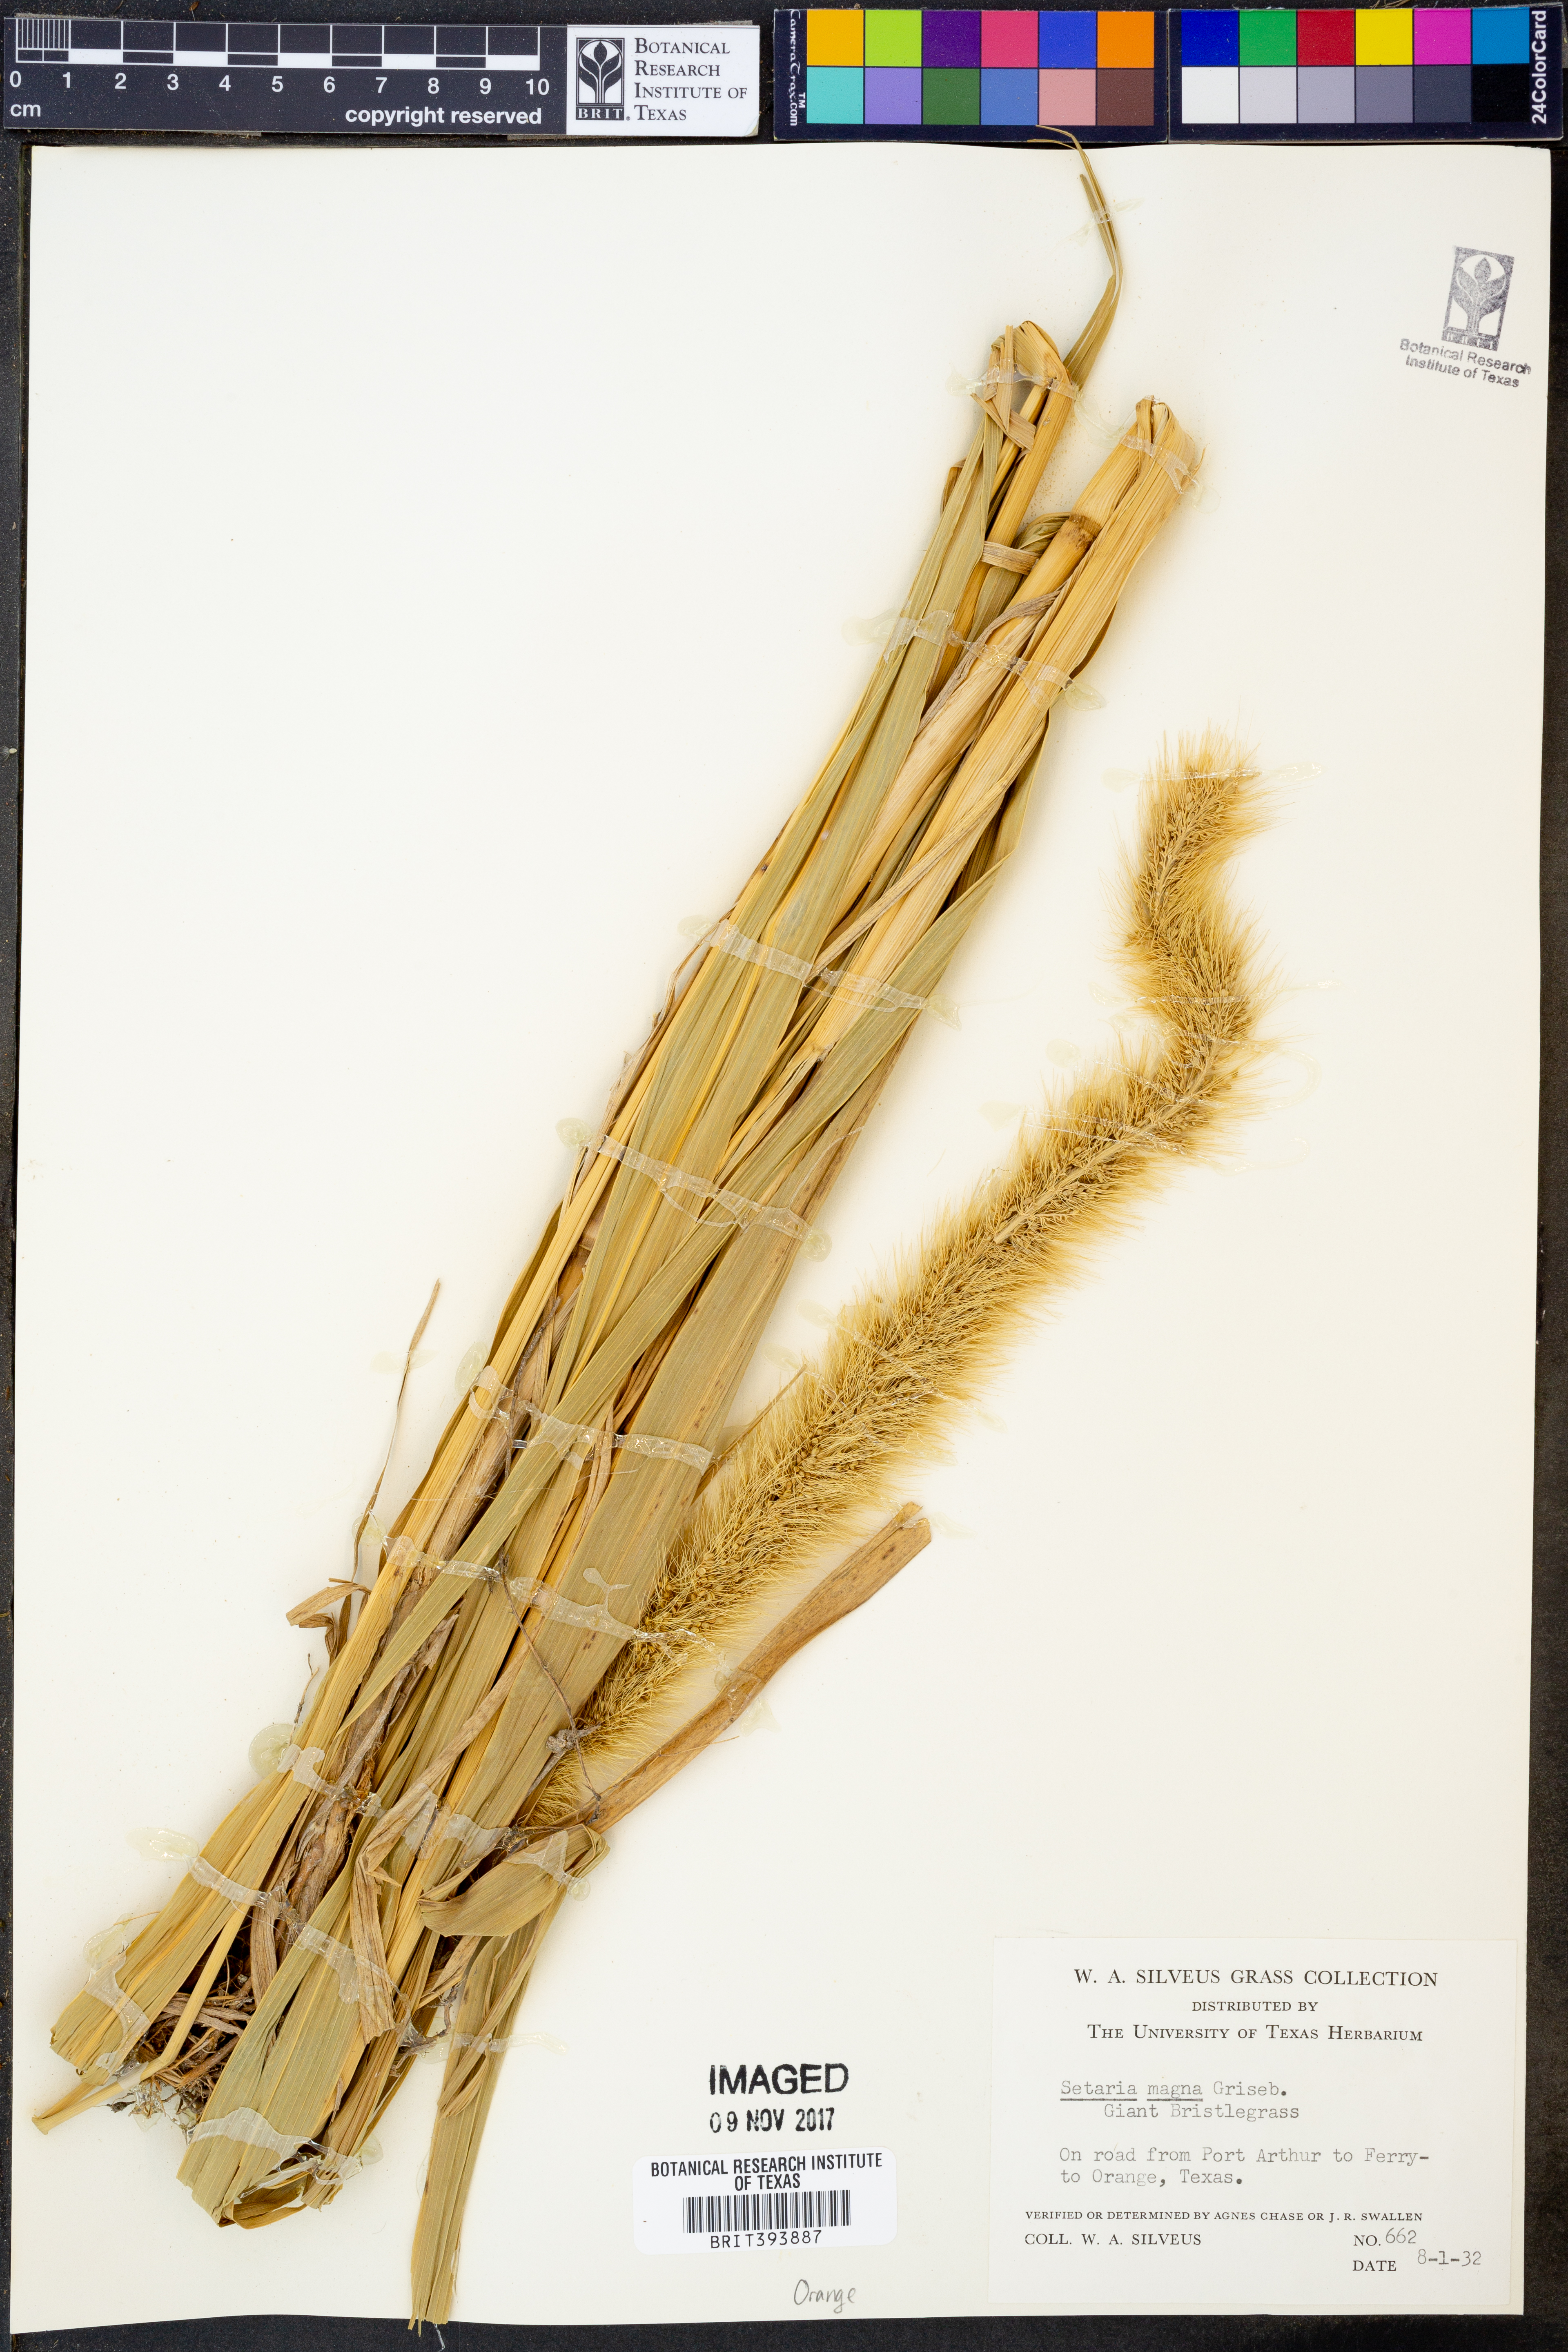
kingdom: Plantae
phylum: Tracheophyta
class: Liliopsida
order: Poales
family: Poaceae
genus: Setaria
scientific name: Setaria magna
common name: Giant bristle grass
